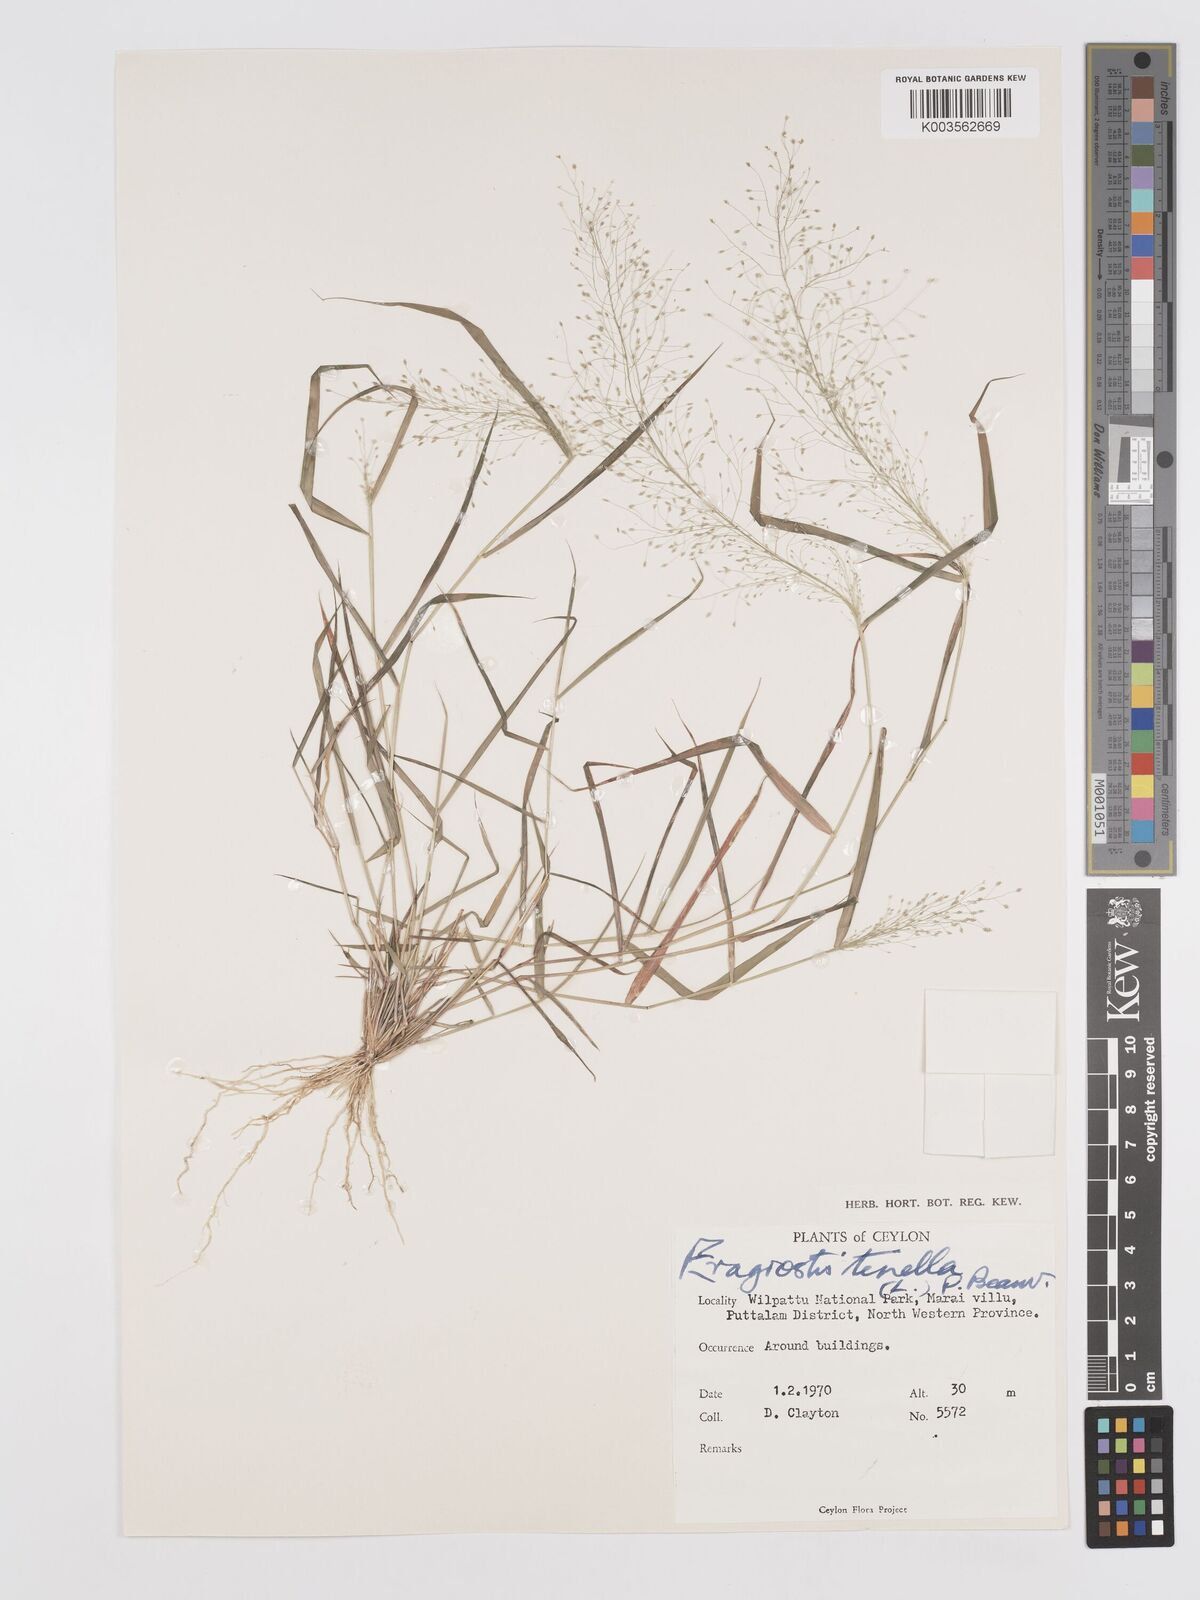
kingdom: Plantae
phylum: Tracheophyta
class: Liliopsida
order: Poales
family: Poaceae
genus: Eragrostis
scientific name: Eragrostis tenella
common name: Japanese lovegrass
